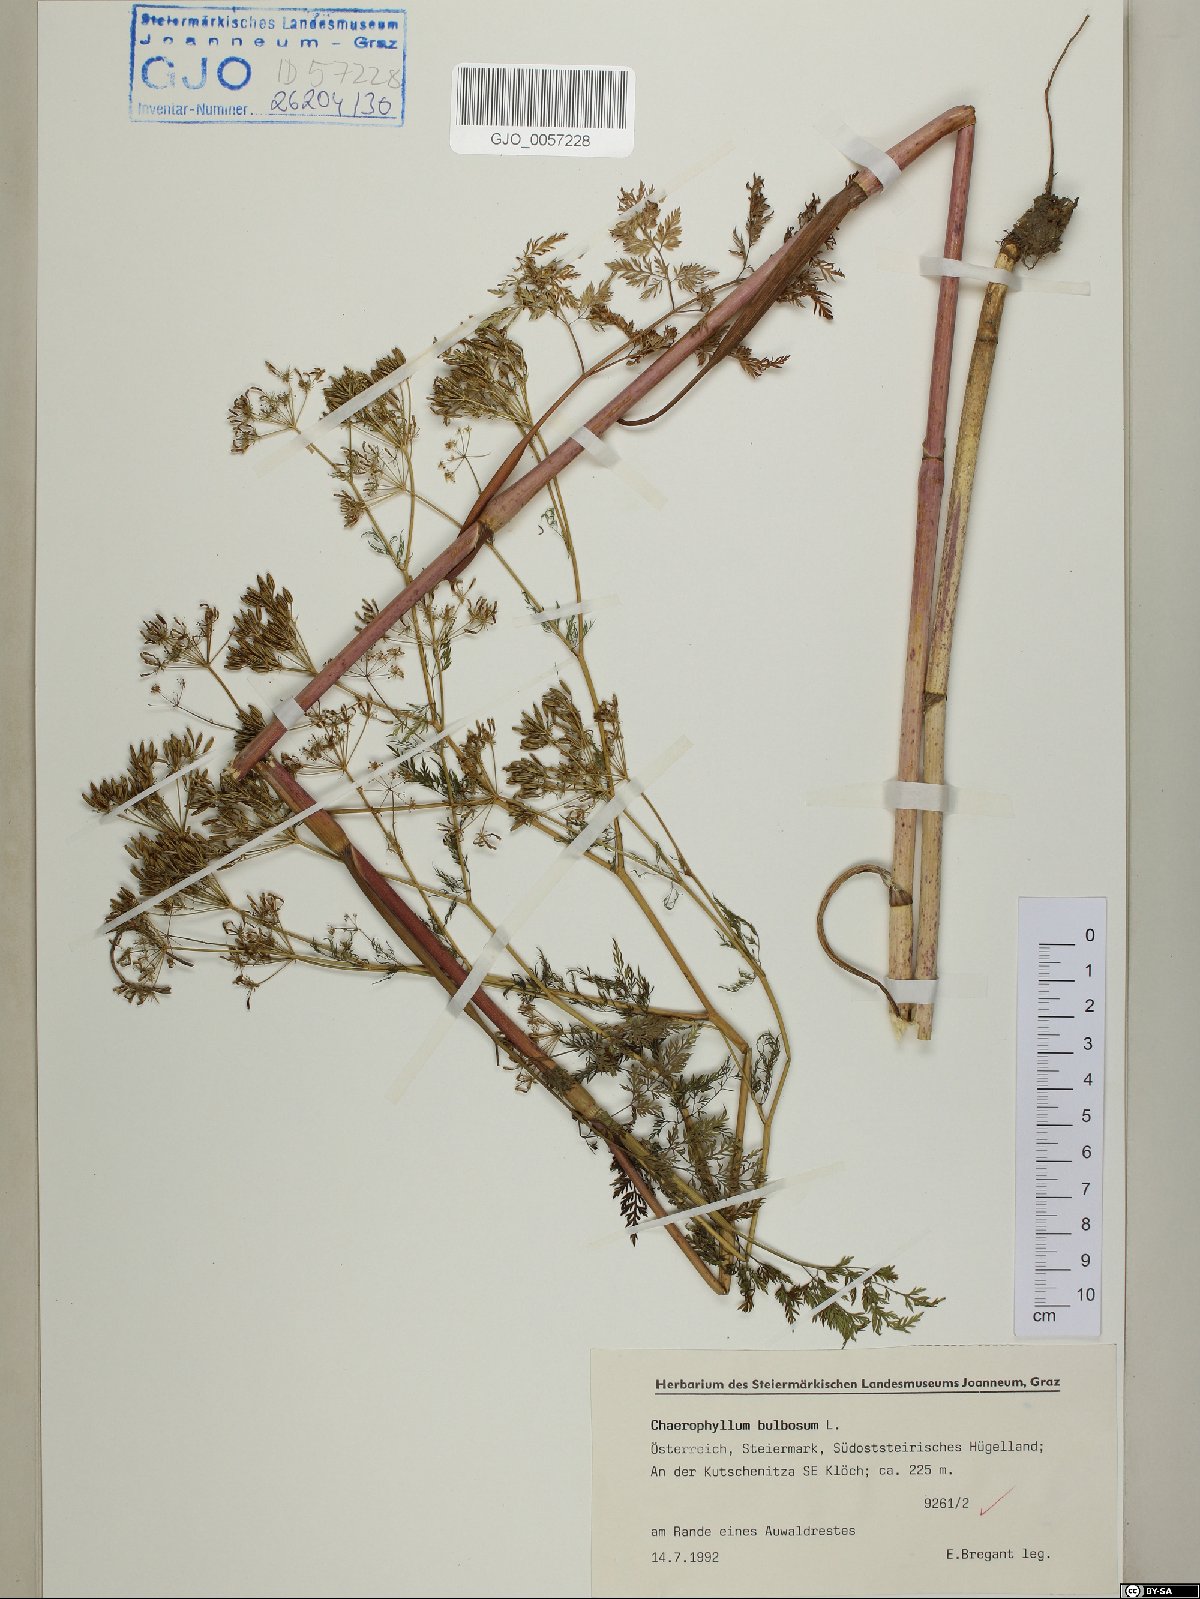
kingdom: Plantae
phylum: Tracheophyta
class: Magnoliopsida
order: Apiales
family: Apiaceae
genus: Chaerophyllum
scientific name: Chaerophyllum bulbosum
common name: Bulbous chervil
